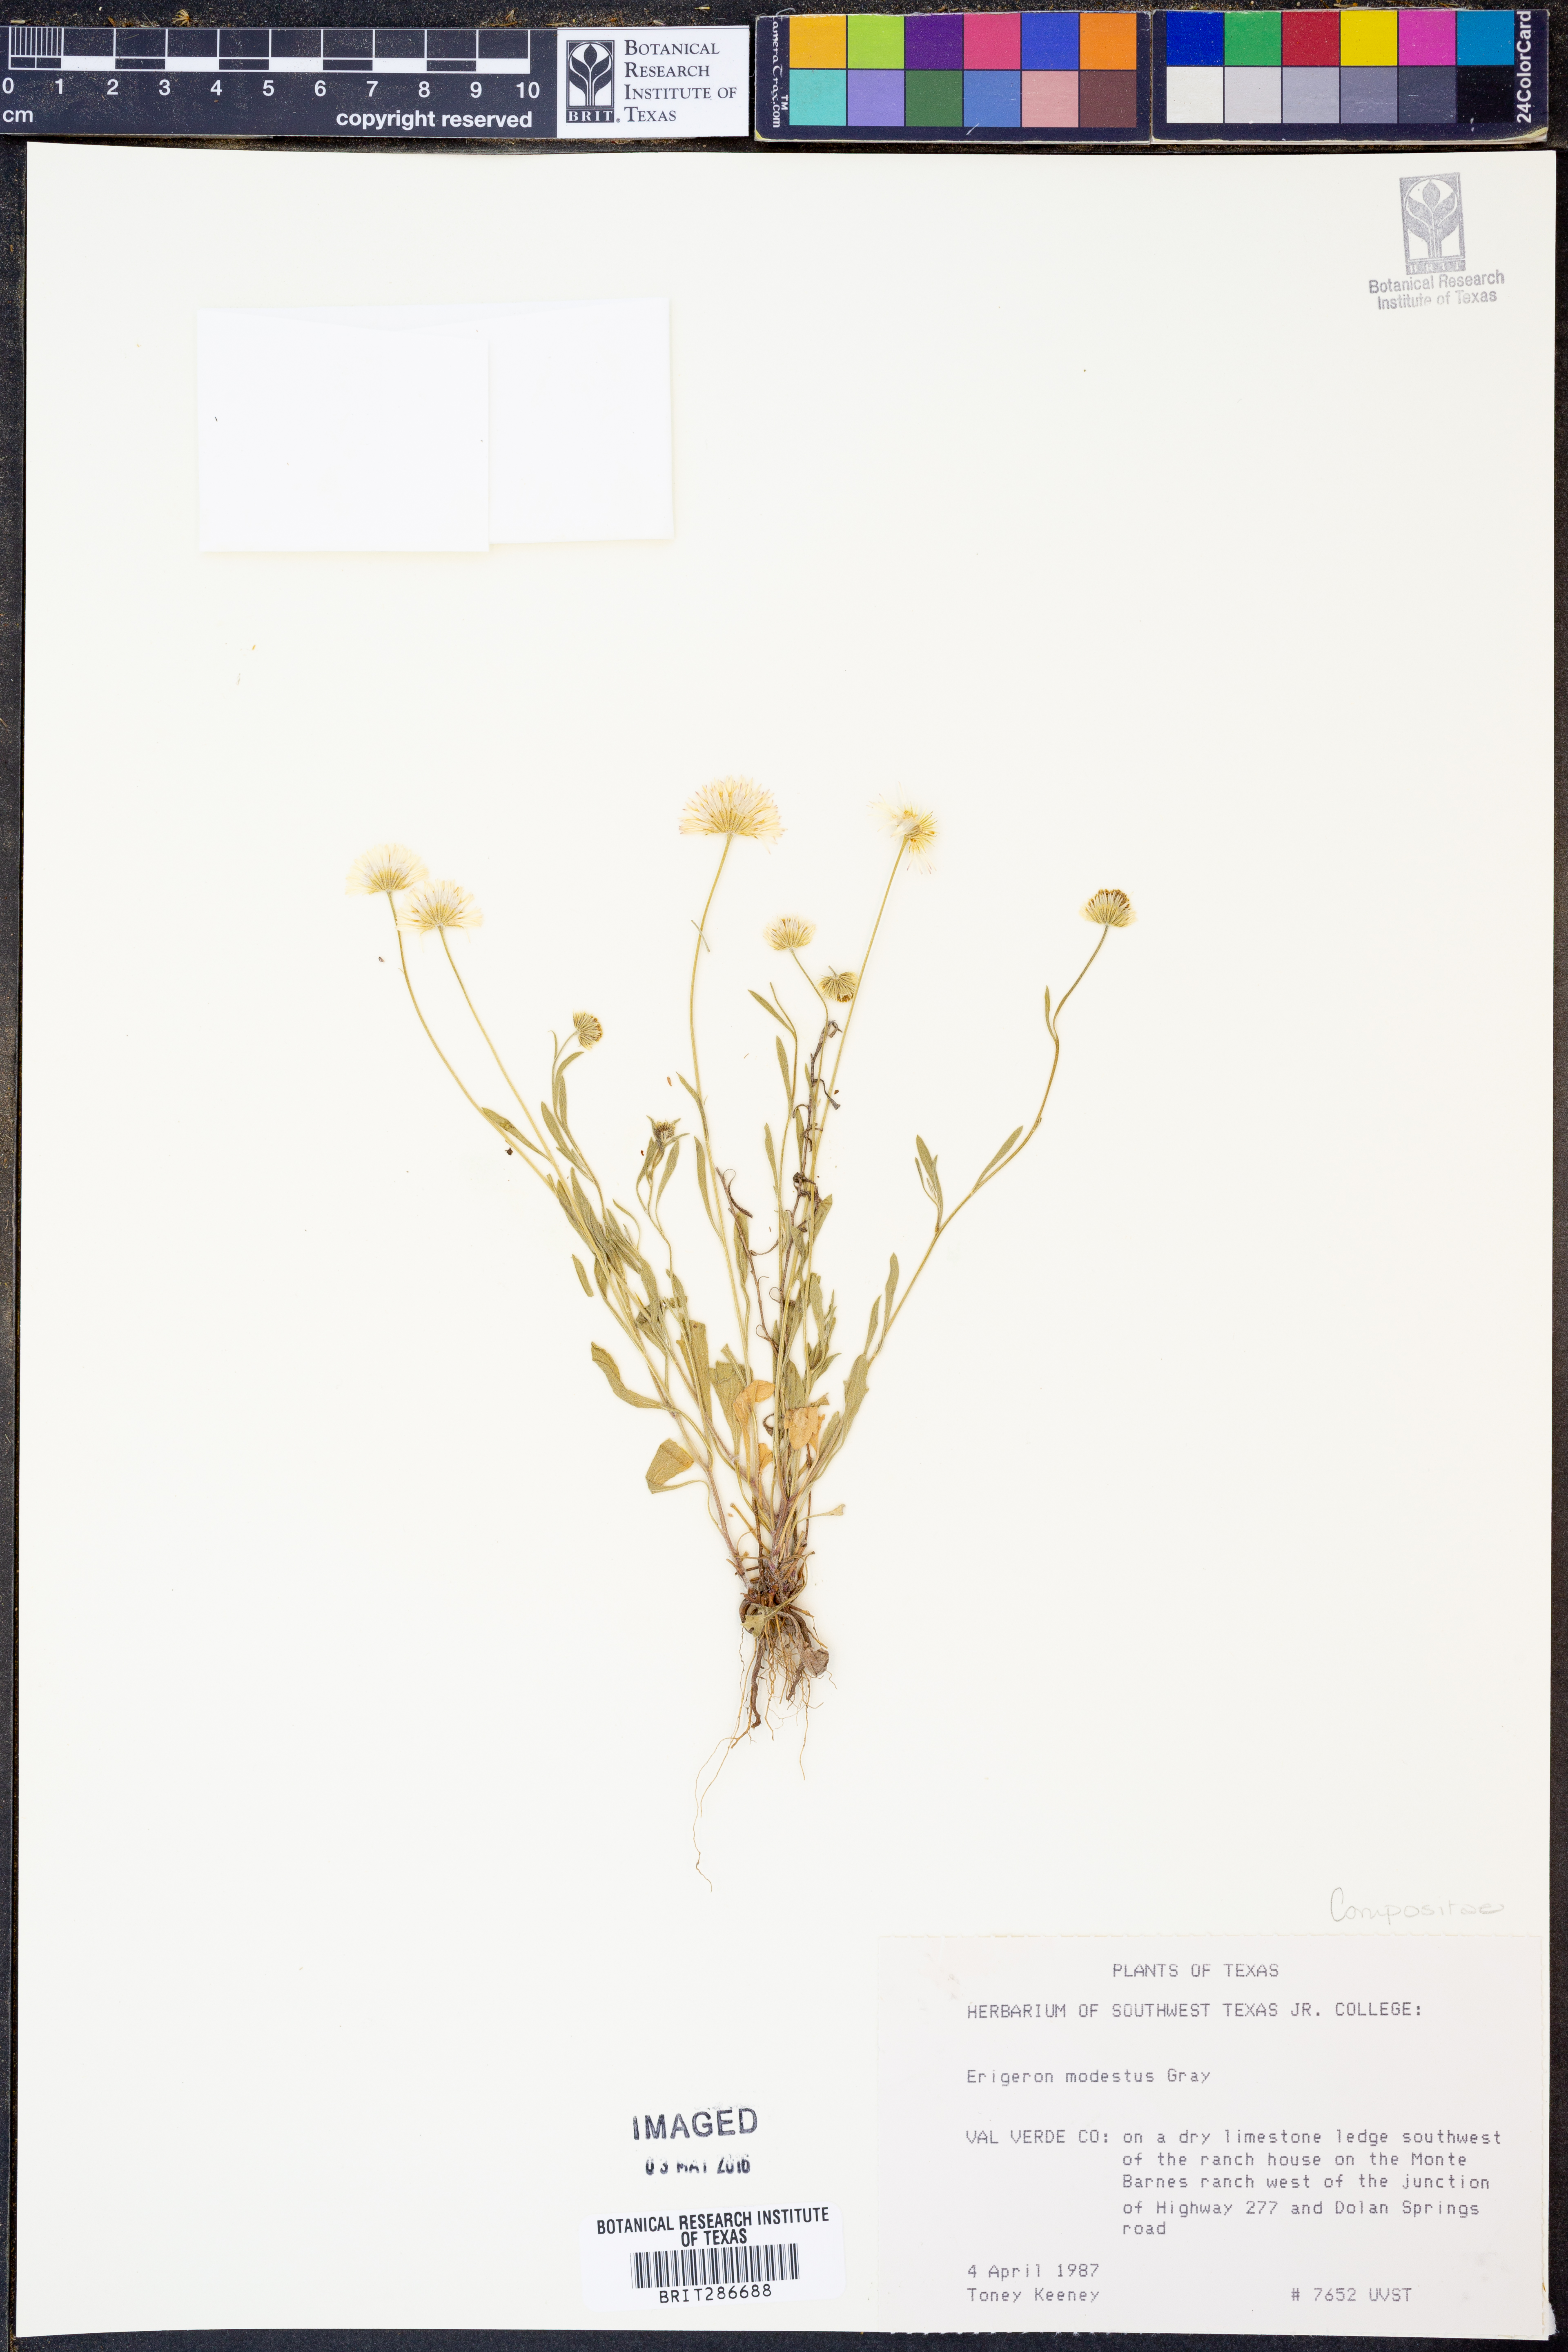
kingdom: Plantae
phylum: Tracheophyta
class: Magnoliopsida
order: Asterales
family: Asteraceae
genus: Erigeron
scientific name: Erigeron modestus
